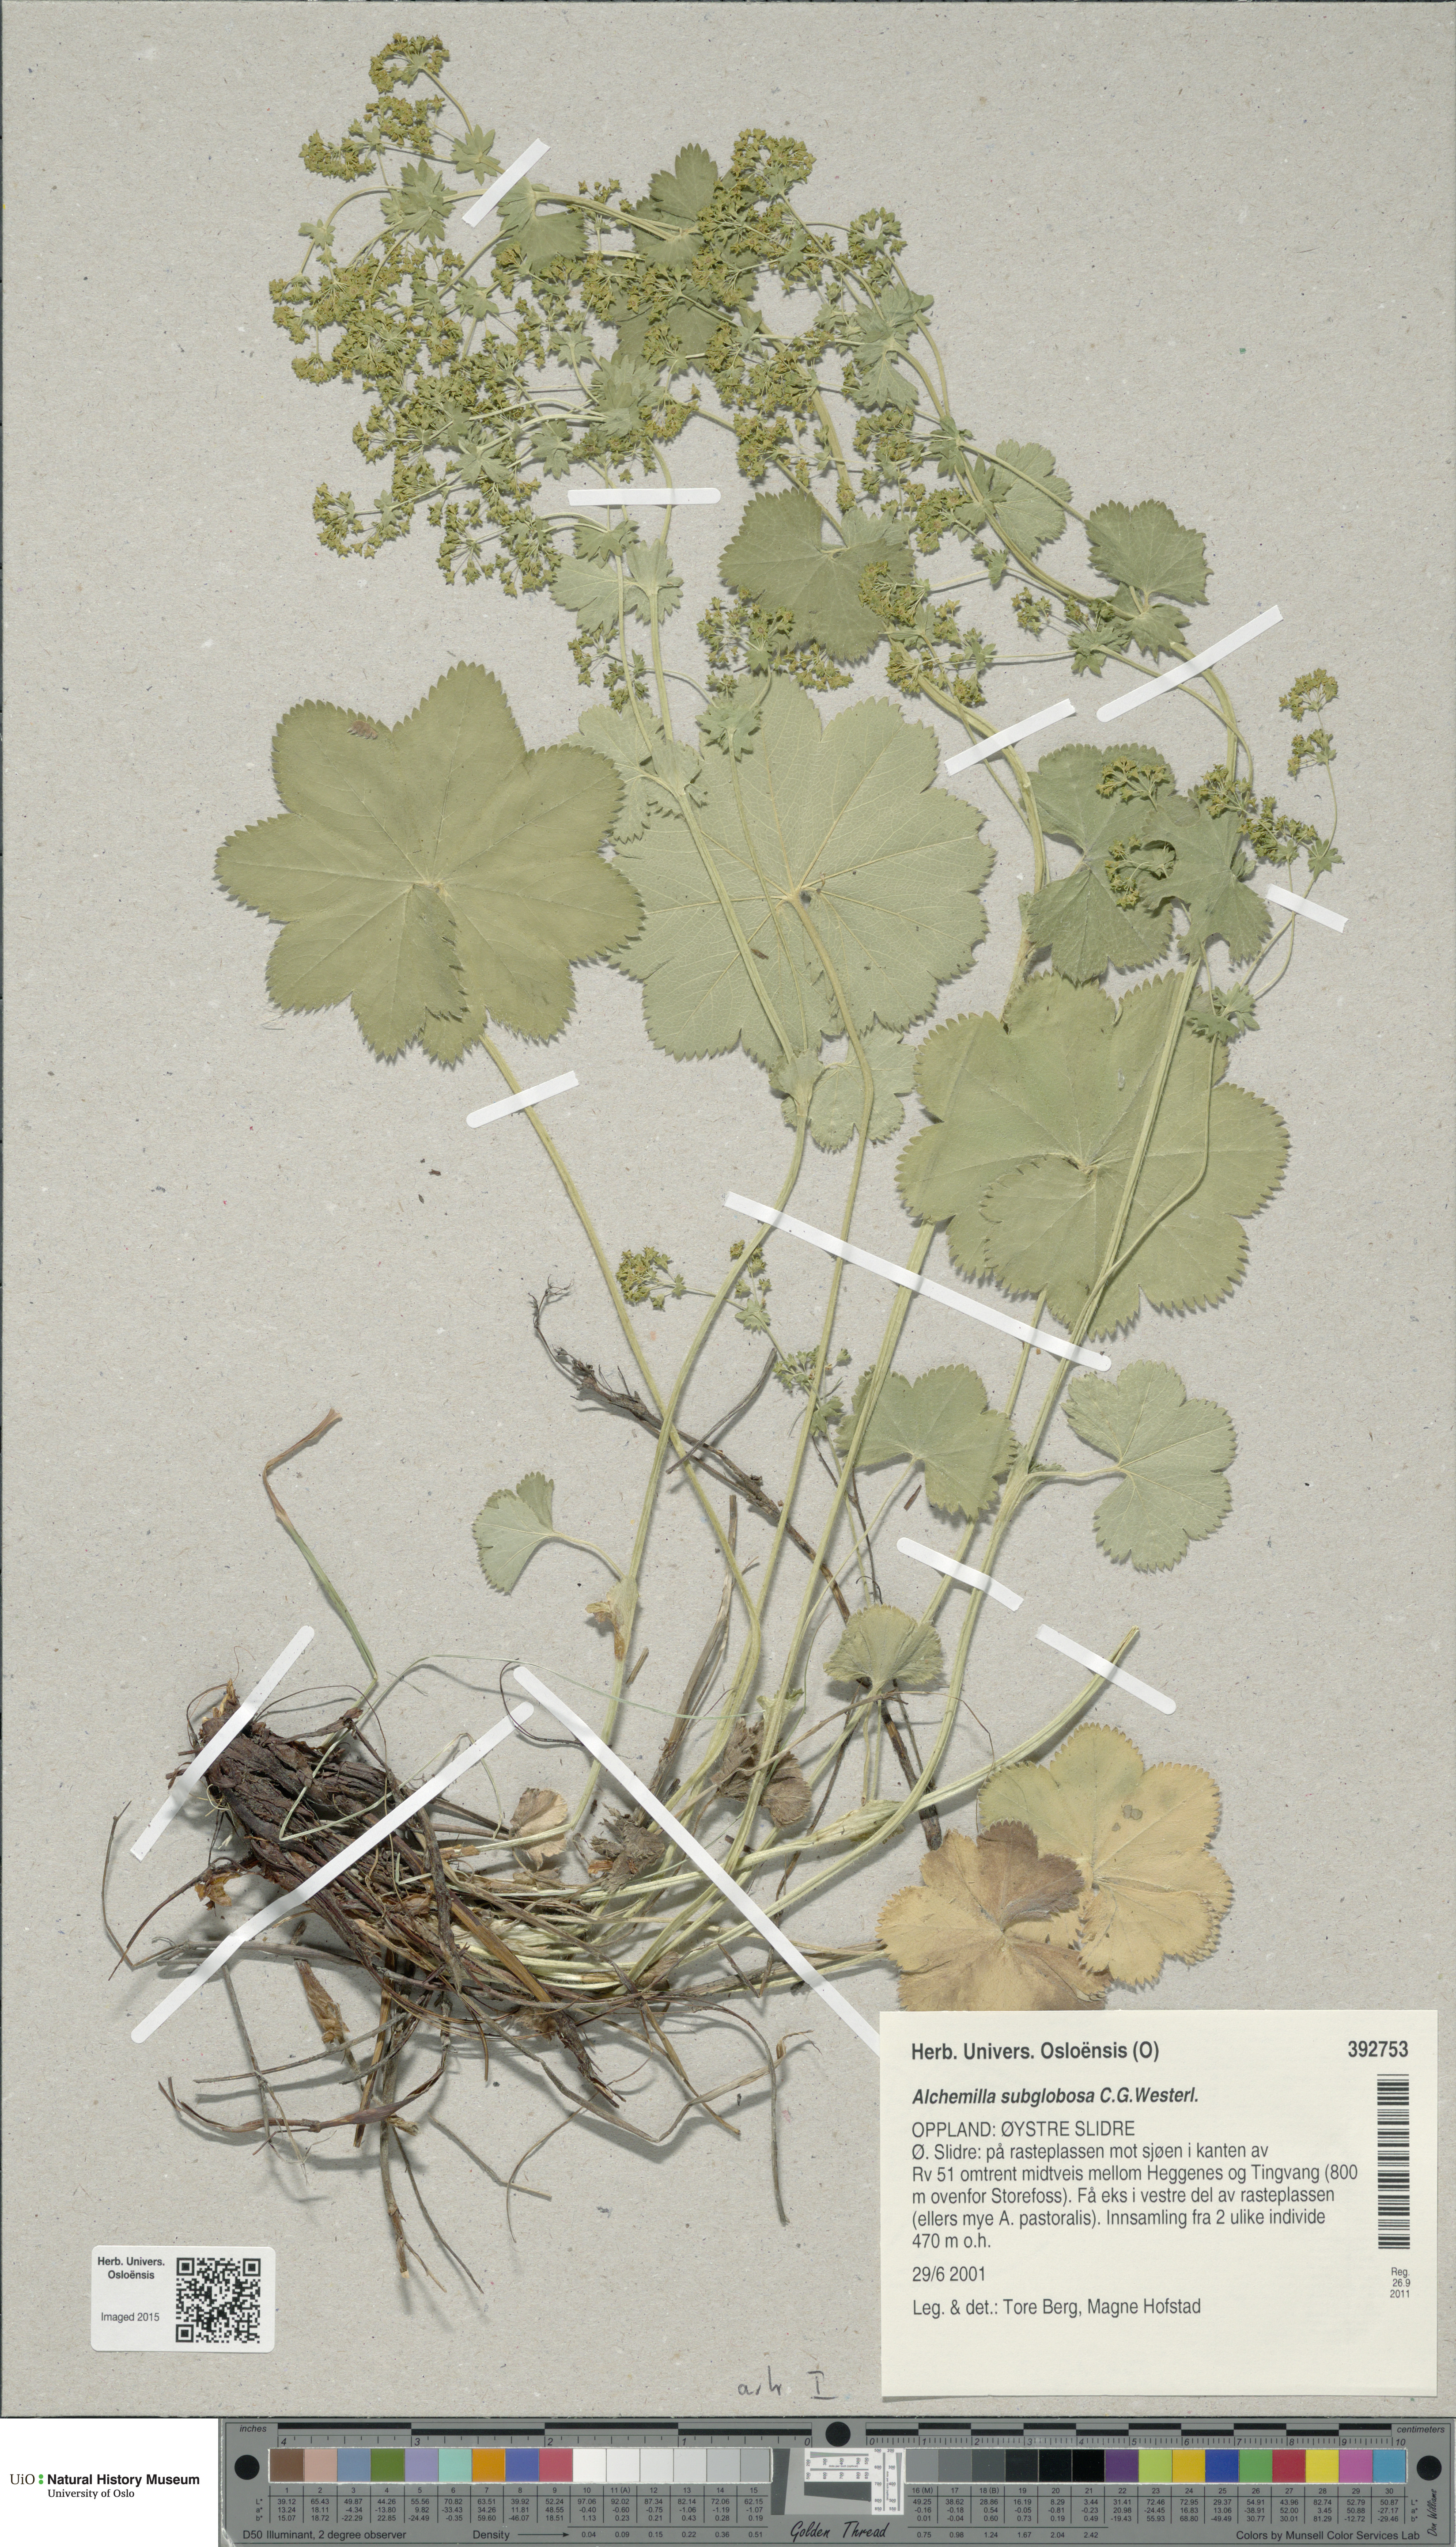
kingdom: Plantae
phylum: Tracheophyta
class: Magnoliopsida
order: Rosales
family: Rosaceae
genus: Alchemilla
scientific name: Alchemilla subglobosa
